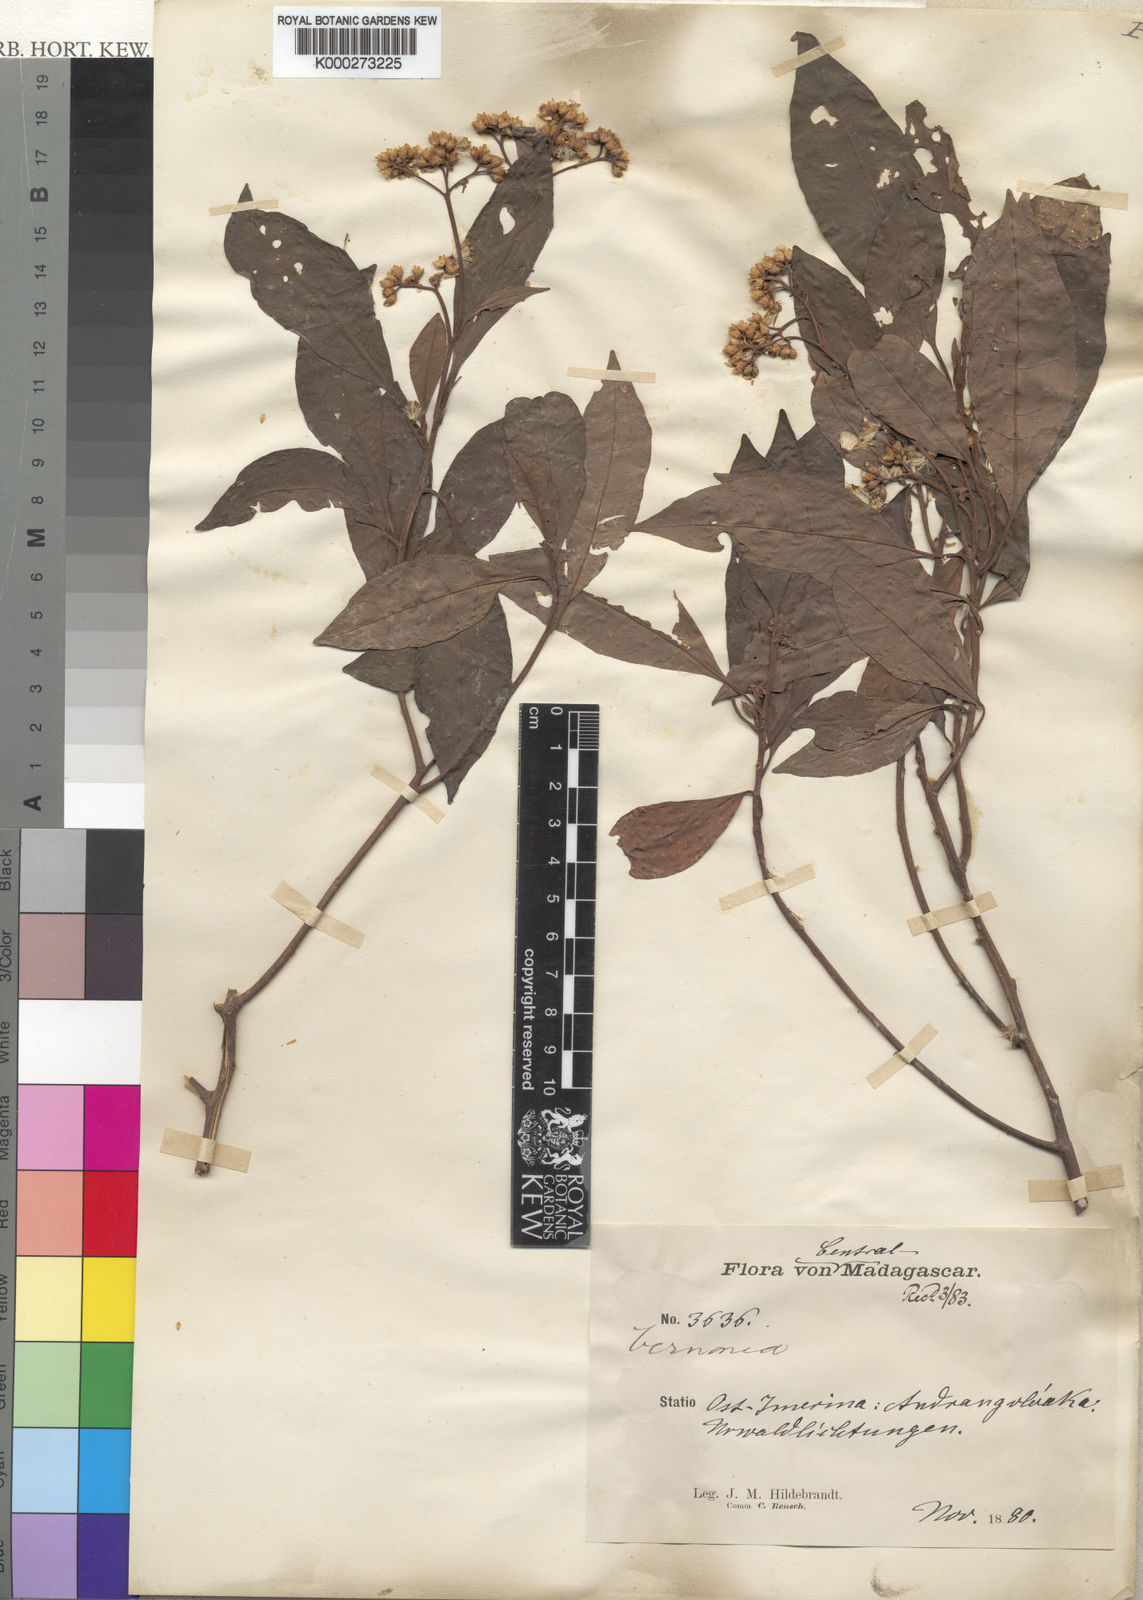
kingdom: Plantae
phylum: Tracheophyta
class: Magnoliopsida
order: Asterales
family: Asteraceae
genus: Jeffreycia
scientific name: Jeffreycia hildebrandtii
